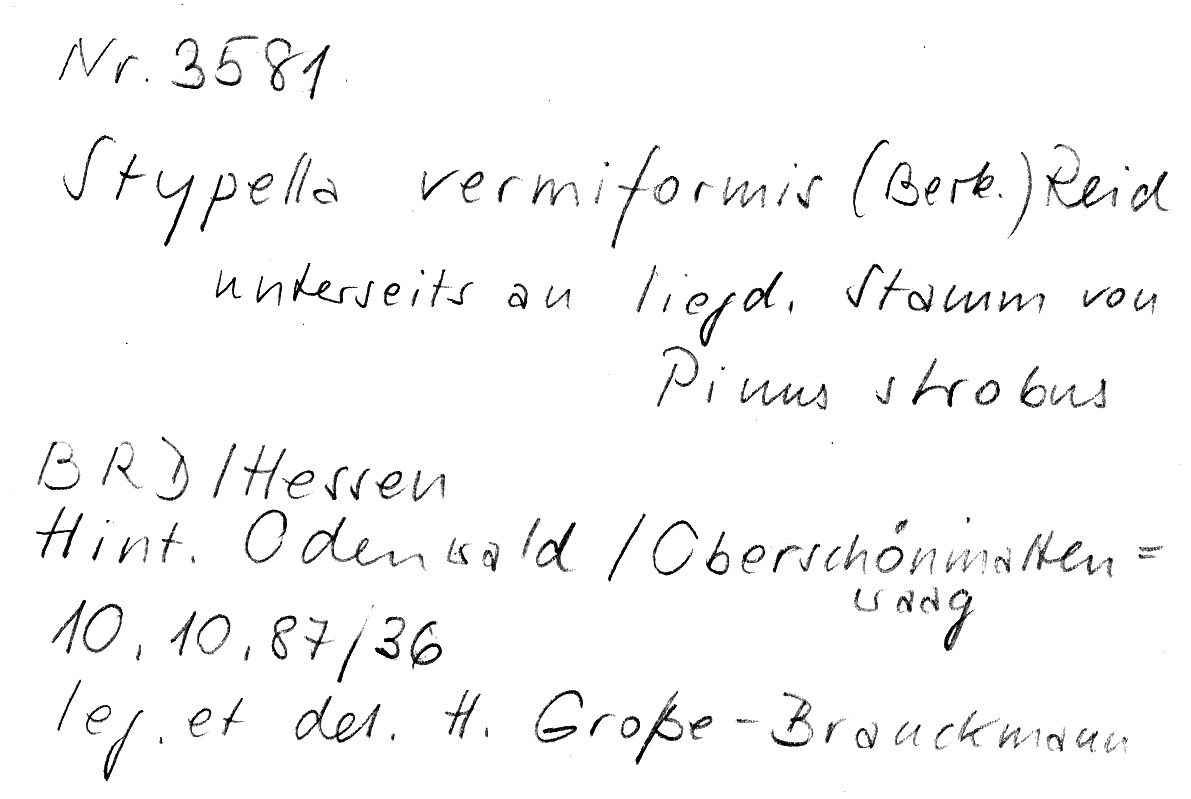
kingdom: Plantae
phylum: Tracheophyta
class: Pinopsida
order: Pinales
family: Pinaceae
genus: Pinus
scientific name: Pinus strobus
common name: Weymouth pine
